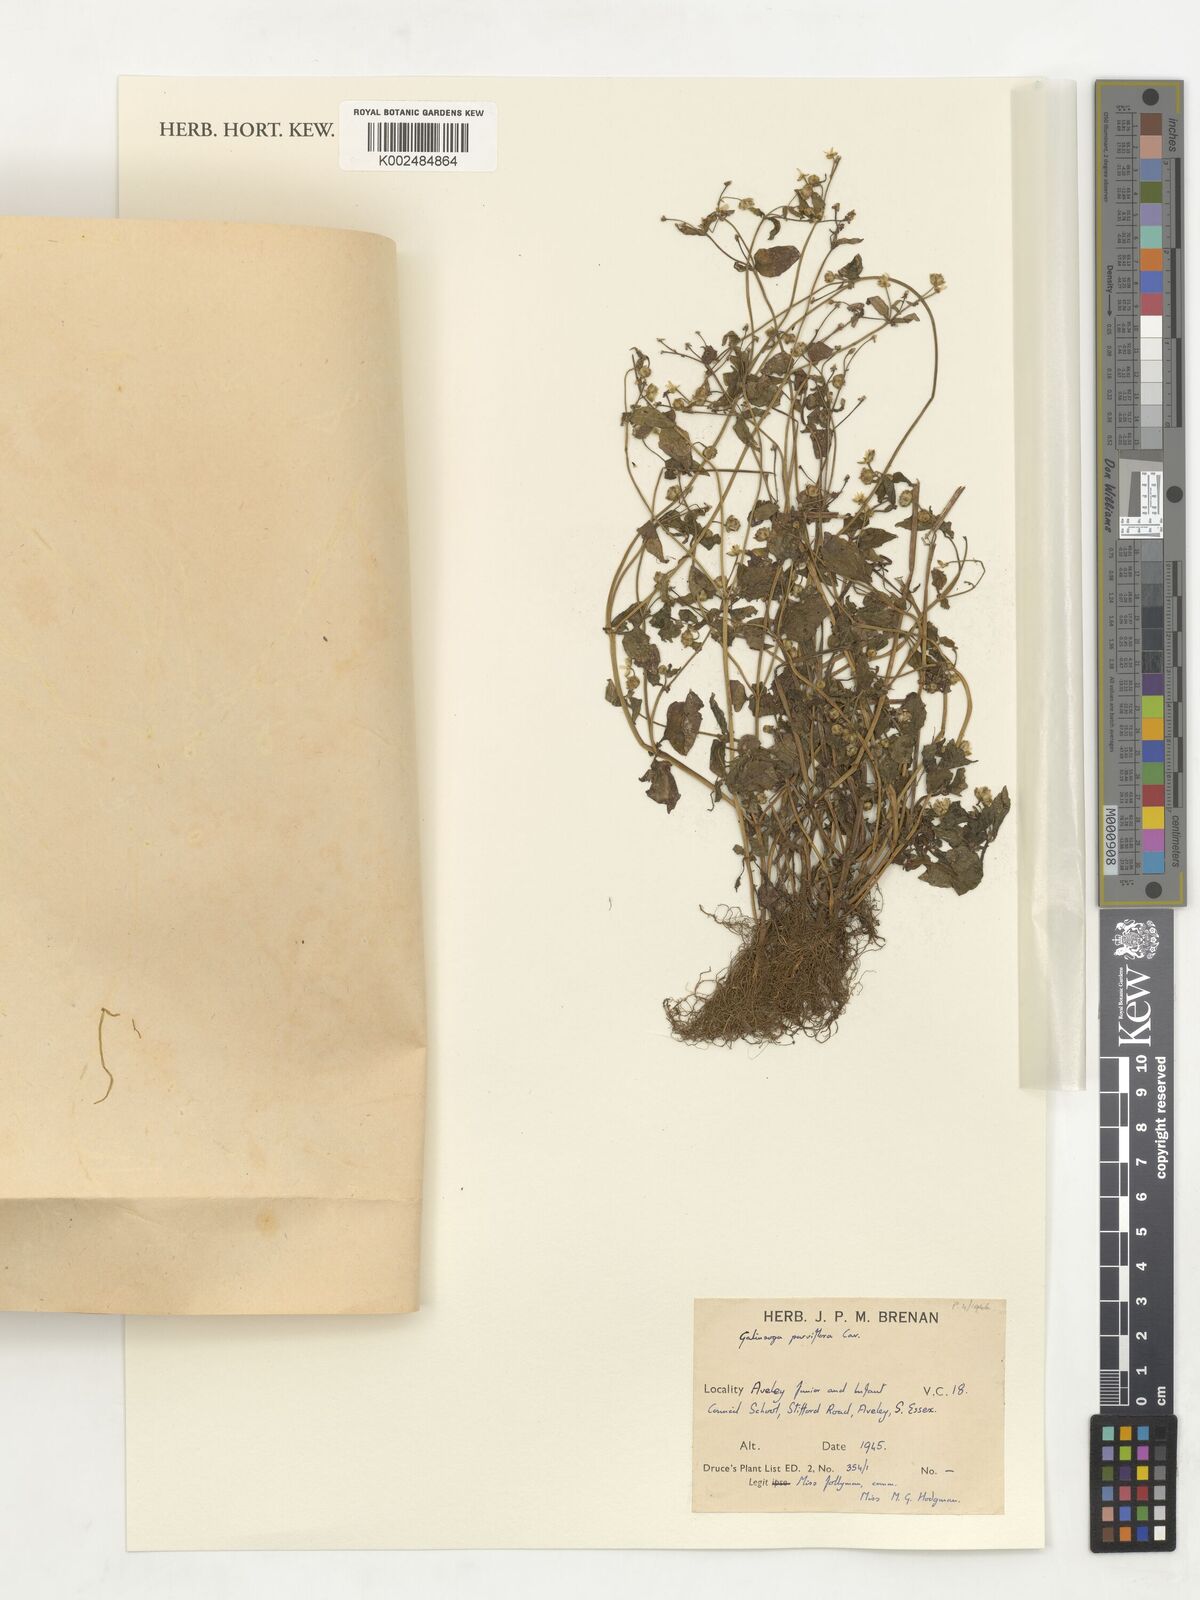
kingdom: Plantae
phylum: Tracheophyta
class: Magnoliopsida
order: Asterales
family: Asteraceae
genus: Galinsoga
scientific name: Galinsoga parviflora
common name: Gallant soldier
